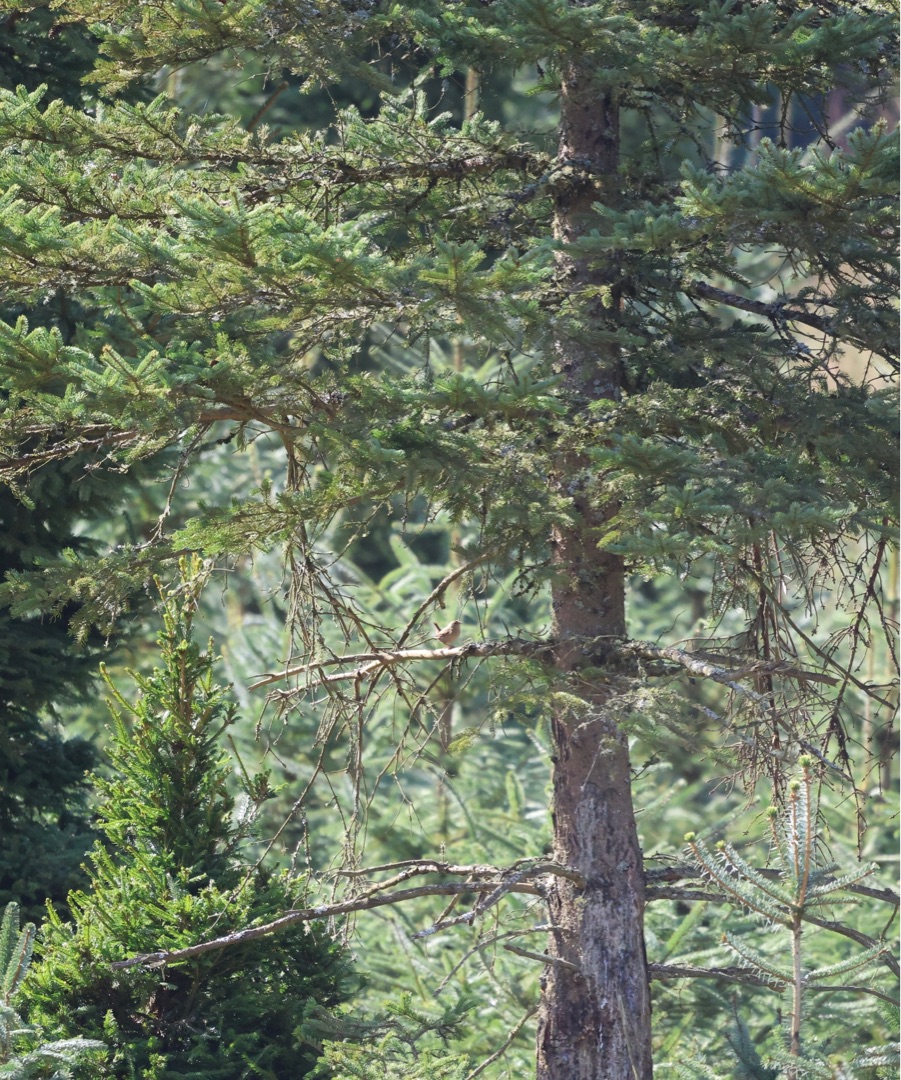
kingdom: Animalia
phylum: Chordata
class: Aves
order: Passeriformes
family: Troglodytidae
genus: Troglodytes
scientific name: Troglodytes troglodytes
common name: Gærdesmutte
